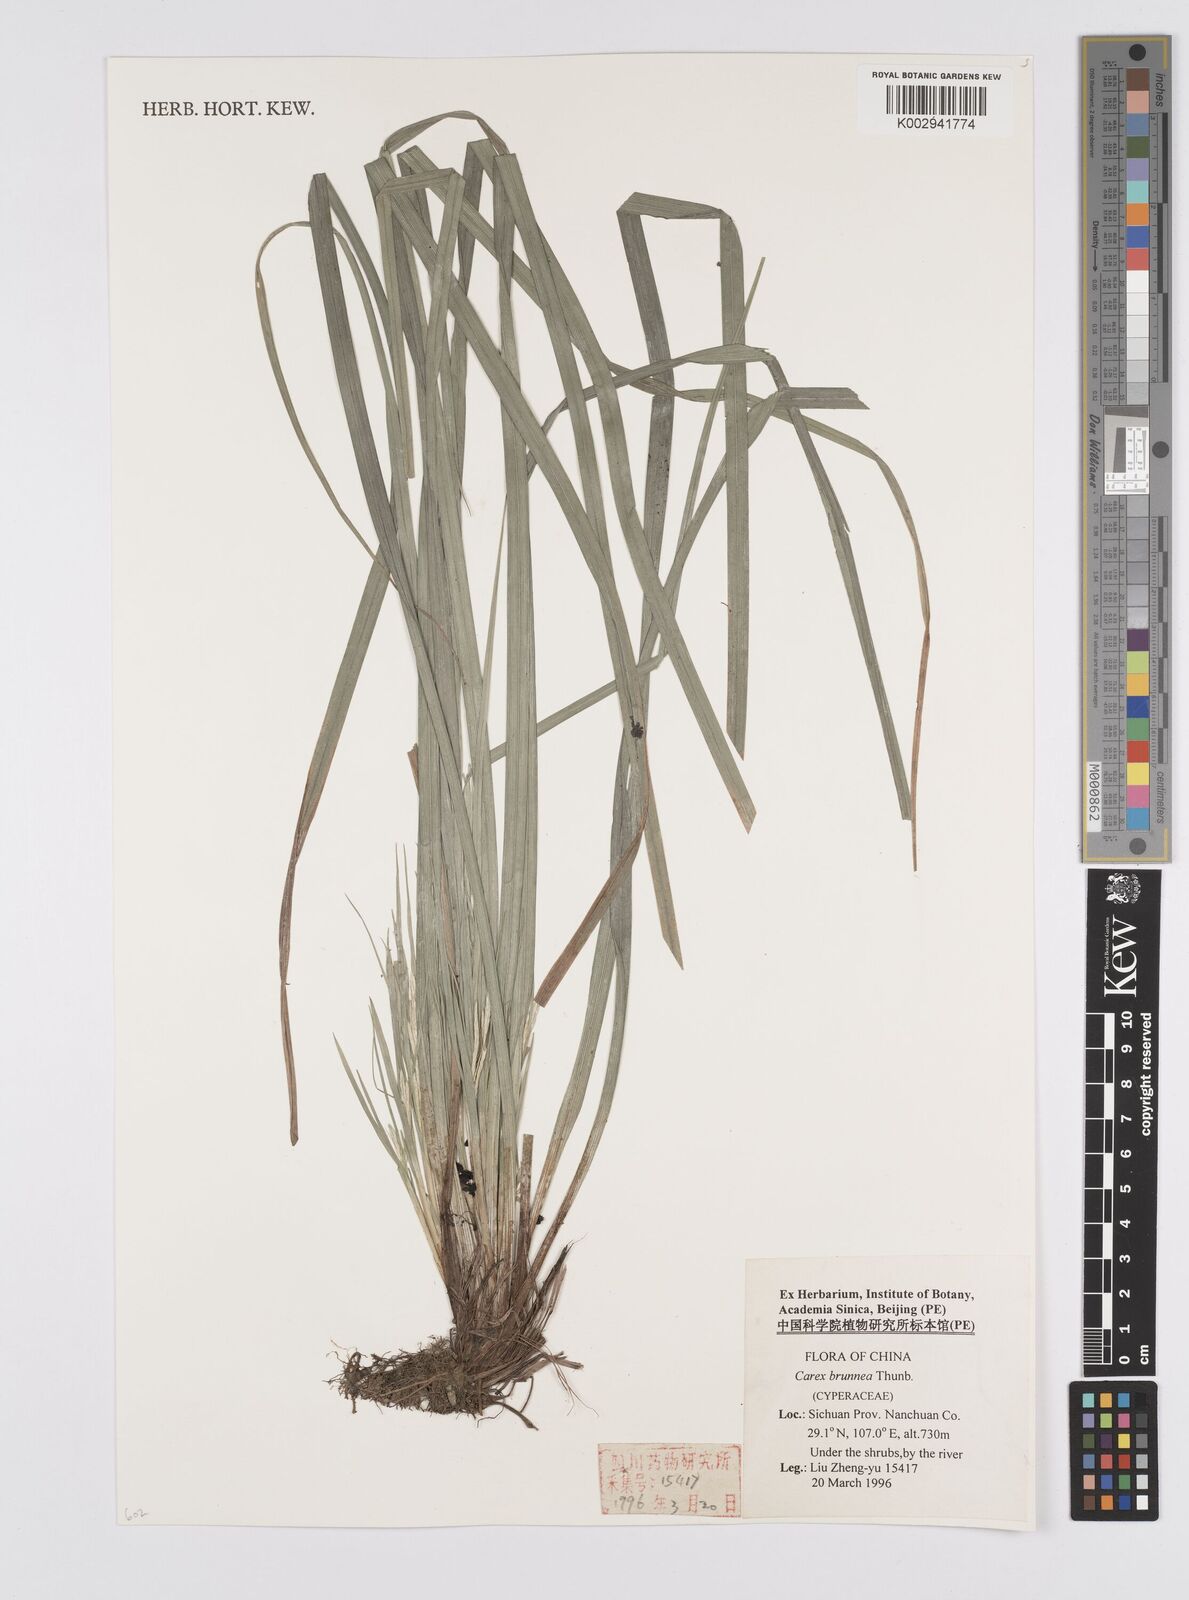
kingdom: Plantae
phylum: Tracheophyta
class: Liliopsida
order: Poales
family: Cyperaceae
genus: Carex
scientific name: Carex brunnea
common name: Greater brown sedge
